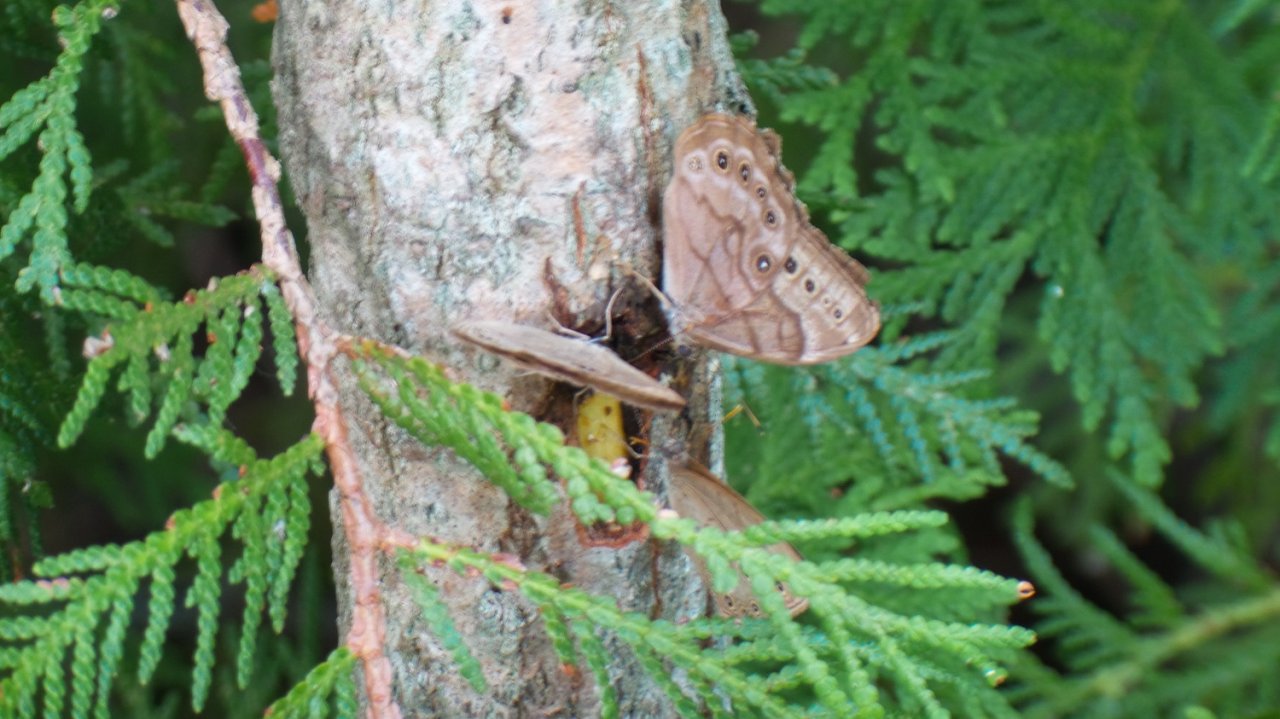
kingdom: Animalia
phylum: Arthropoda
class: Insecta
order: Lepidoptera
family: Nymphalidae
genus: Lethe
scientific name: Lethe anthedon
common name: Northern Pearly-Eye
